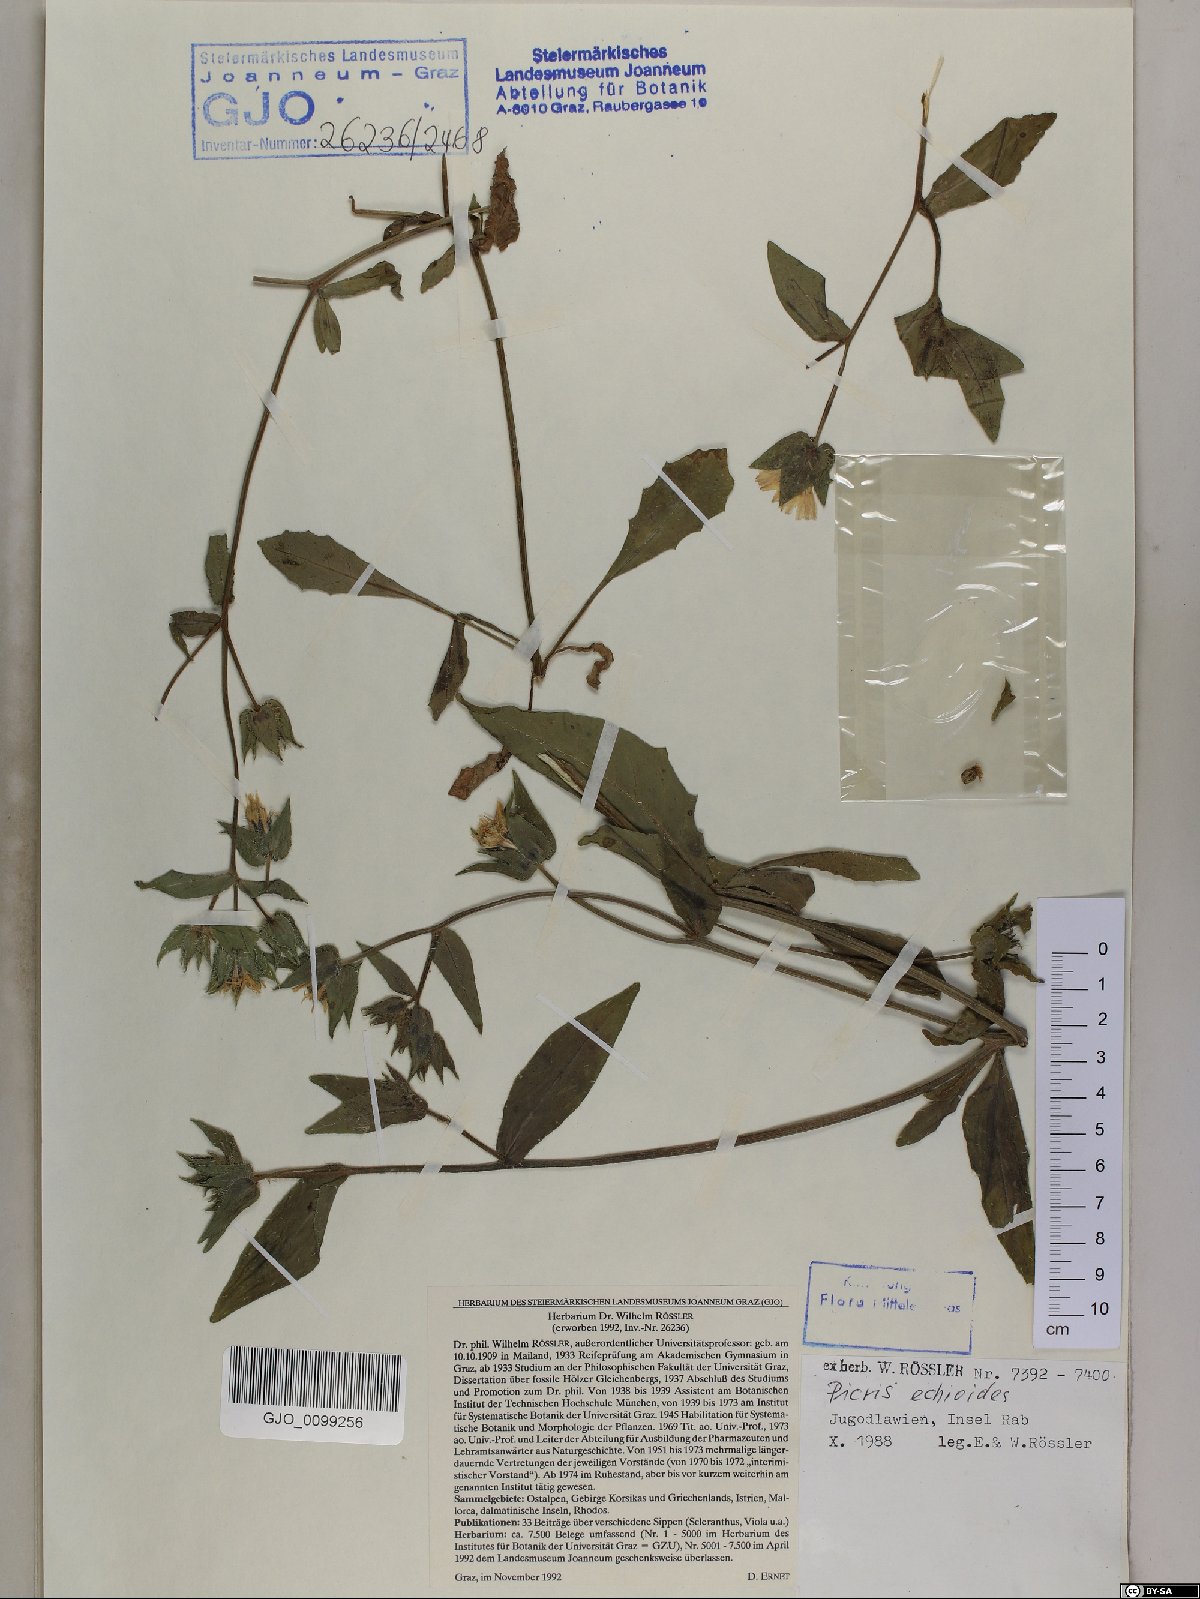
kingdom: Plantae
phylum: Tracheophyta
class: Magnoliopsida
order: Asterales
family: Asteraceae
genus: Helminthotheca
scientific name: Helminthotheca echioides
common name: Ox-tongue
